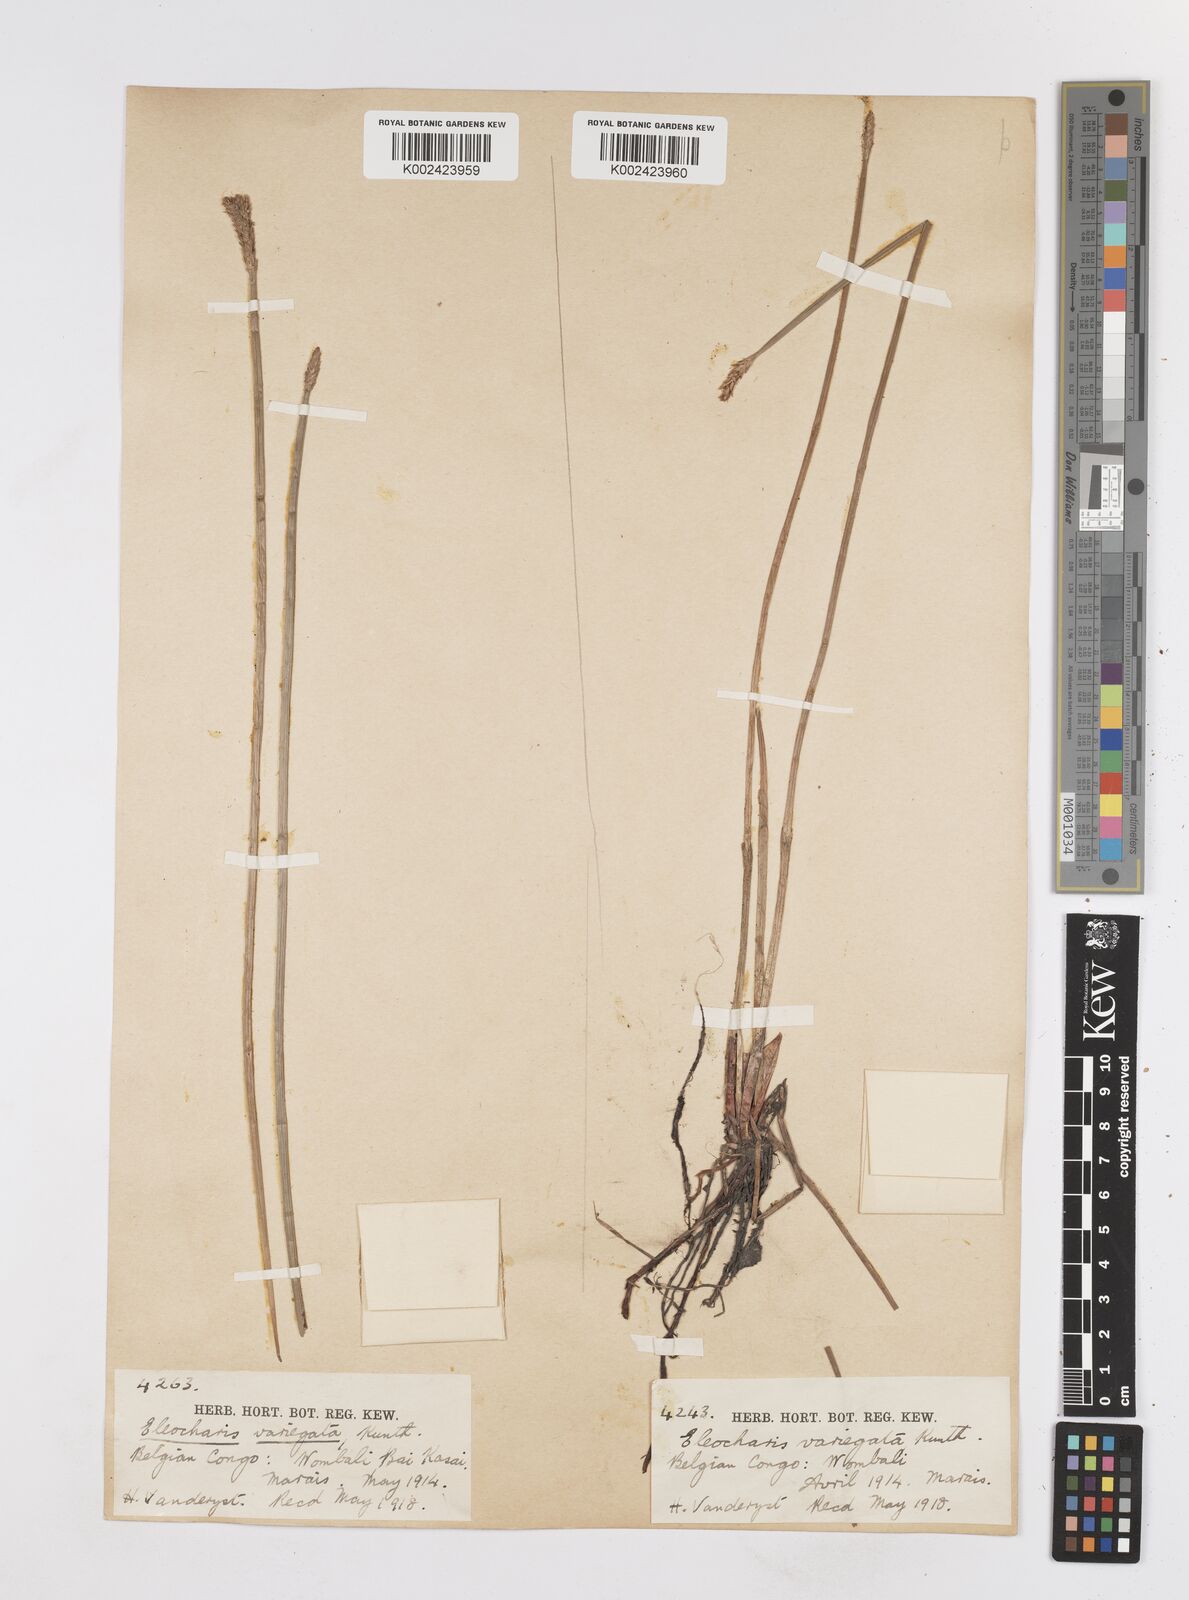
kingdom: Plantae
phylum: Tracheophyta
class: Liliopsida
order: Poales
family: Cyperaceae
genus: Eleocharis
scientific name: Eleocharis variegata
